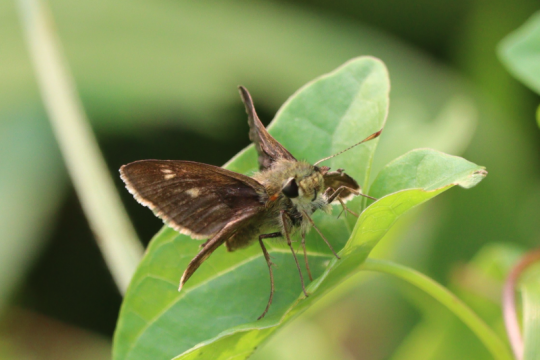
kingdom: Animalia
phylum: Arthropoda
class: Insecta
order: Lepidoptera
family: Hesperiidae
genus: Polites
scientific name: Polites egeremet
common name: Northern Broken-Dash
